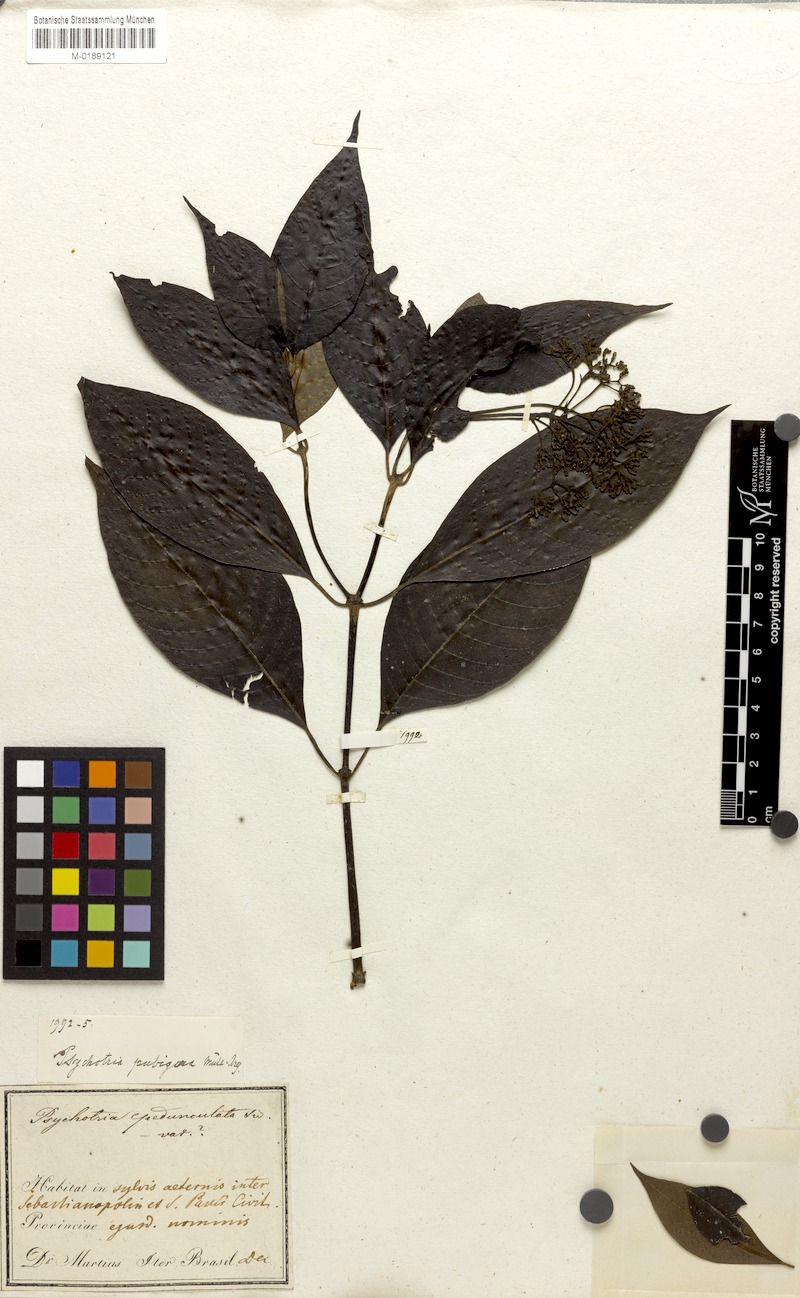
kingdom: Plantae
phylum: Tracheophyta
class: Magnoliopsida
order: Gentianales
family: Rubiaceae
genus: Psychotria
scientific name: Psychotria nemorosa
